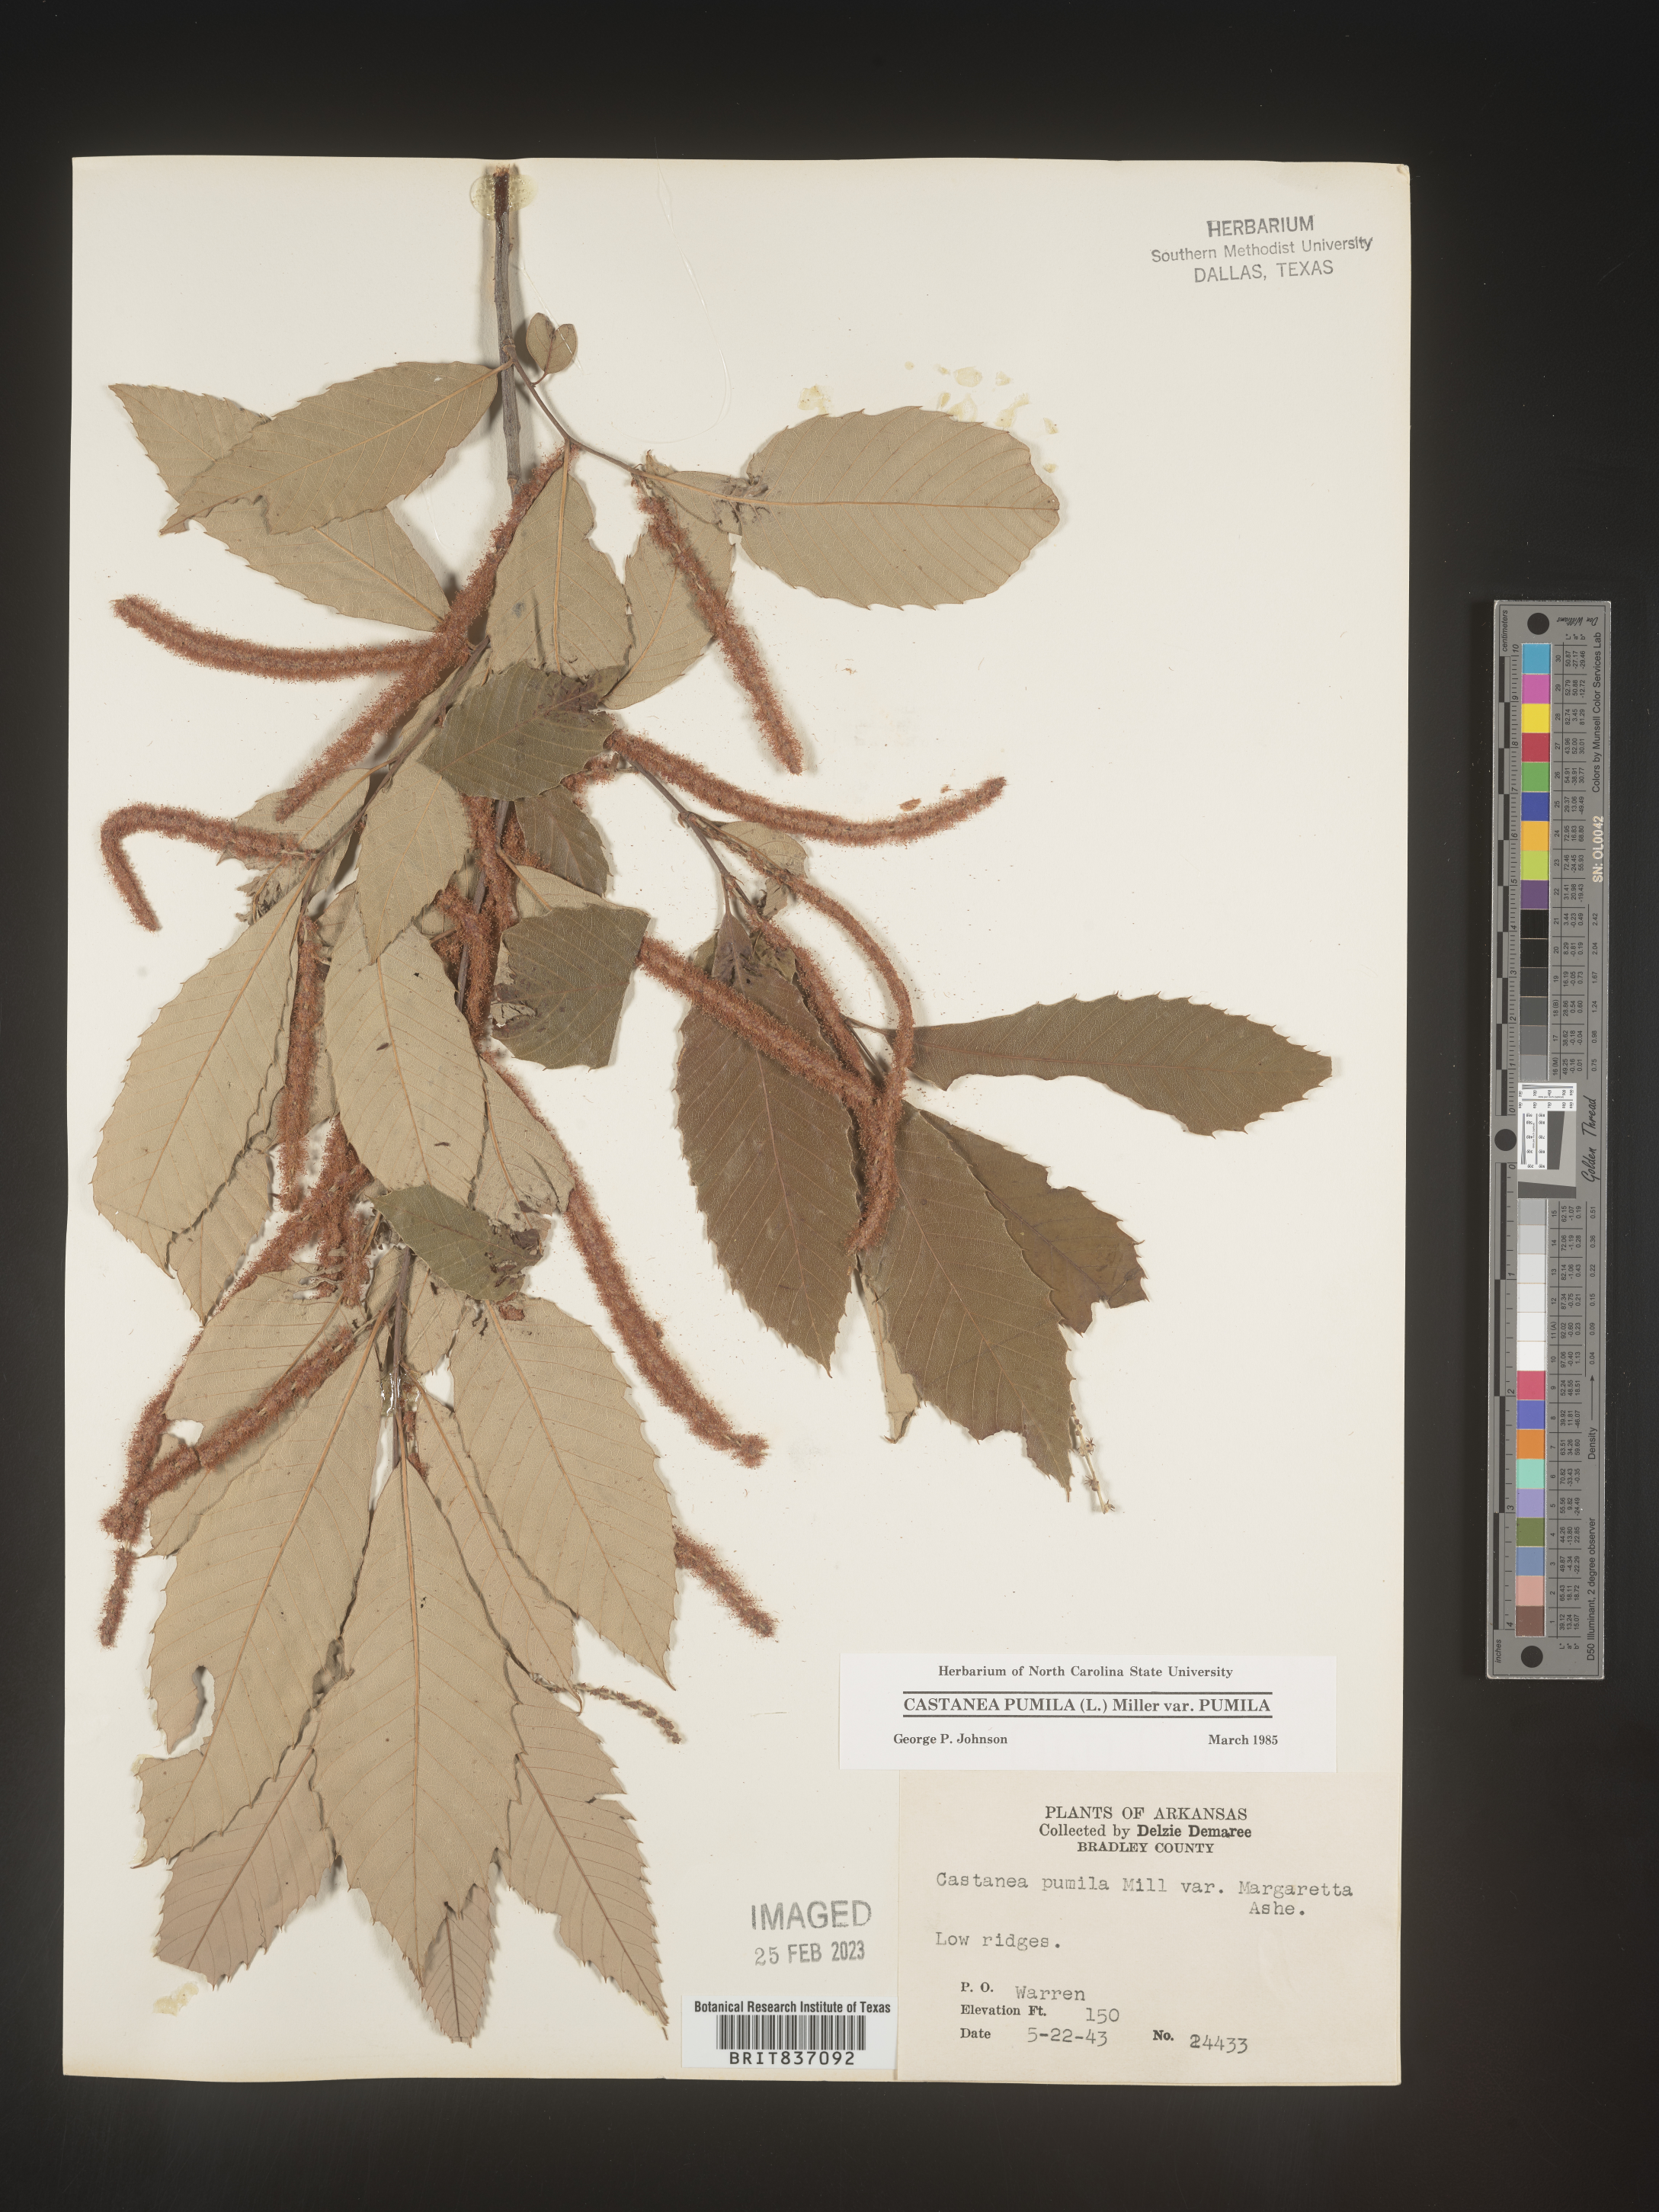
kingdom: Plantae
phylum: Tracheophyta
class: Magnoliopsida
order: Fagales
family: Fagaceae
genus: Castanea
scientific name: Castanea pumila
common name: Chinkapin
